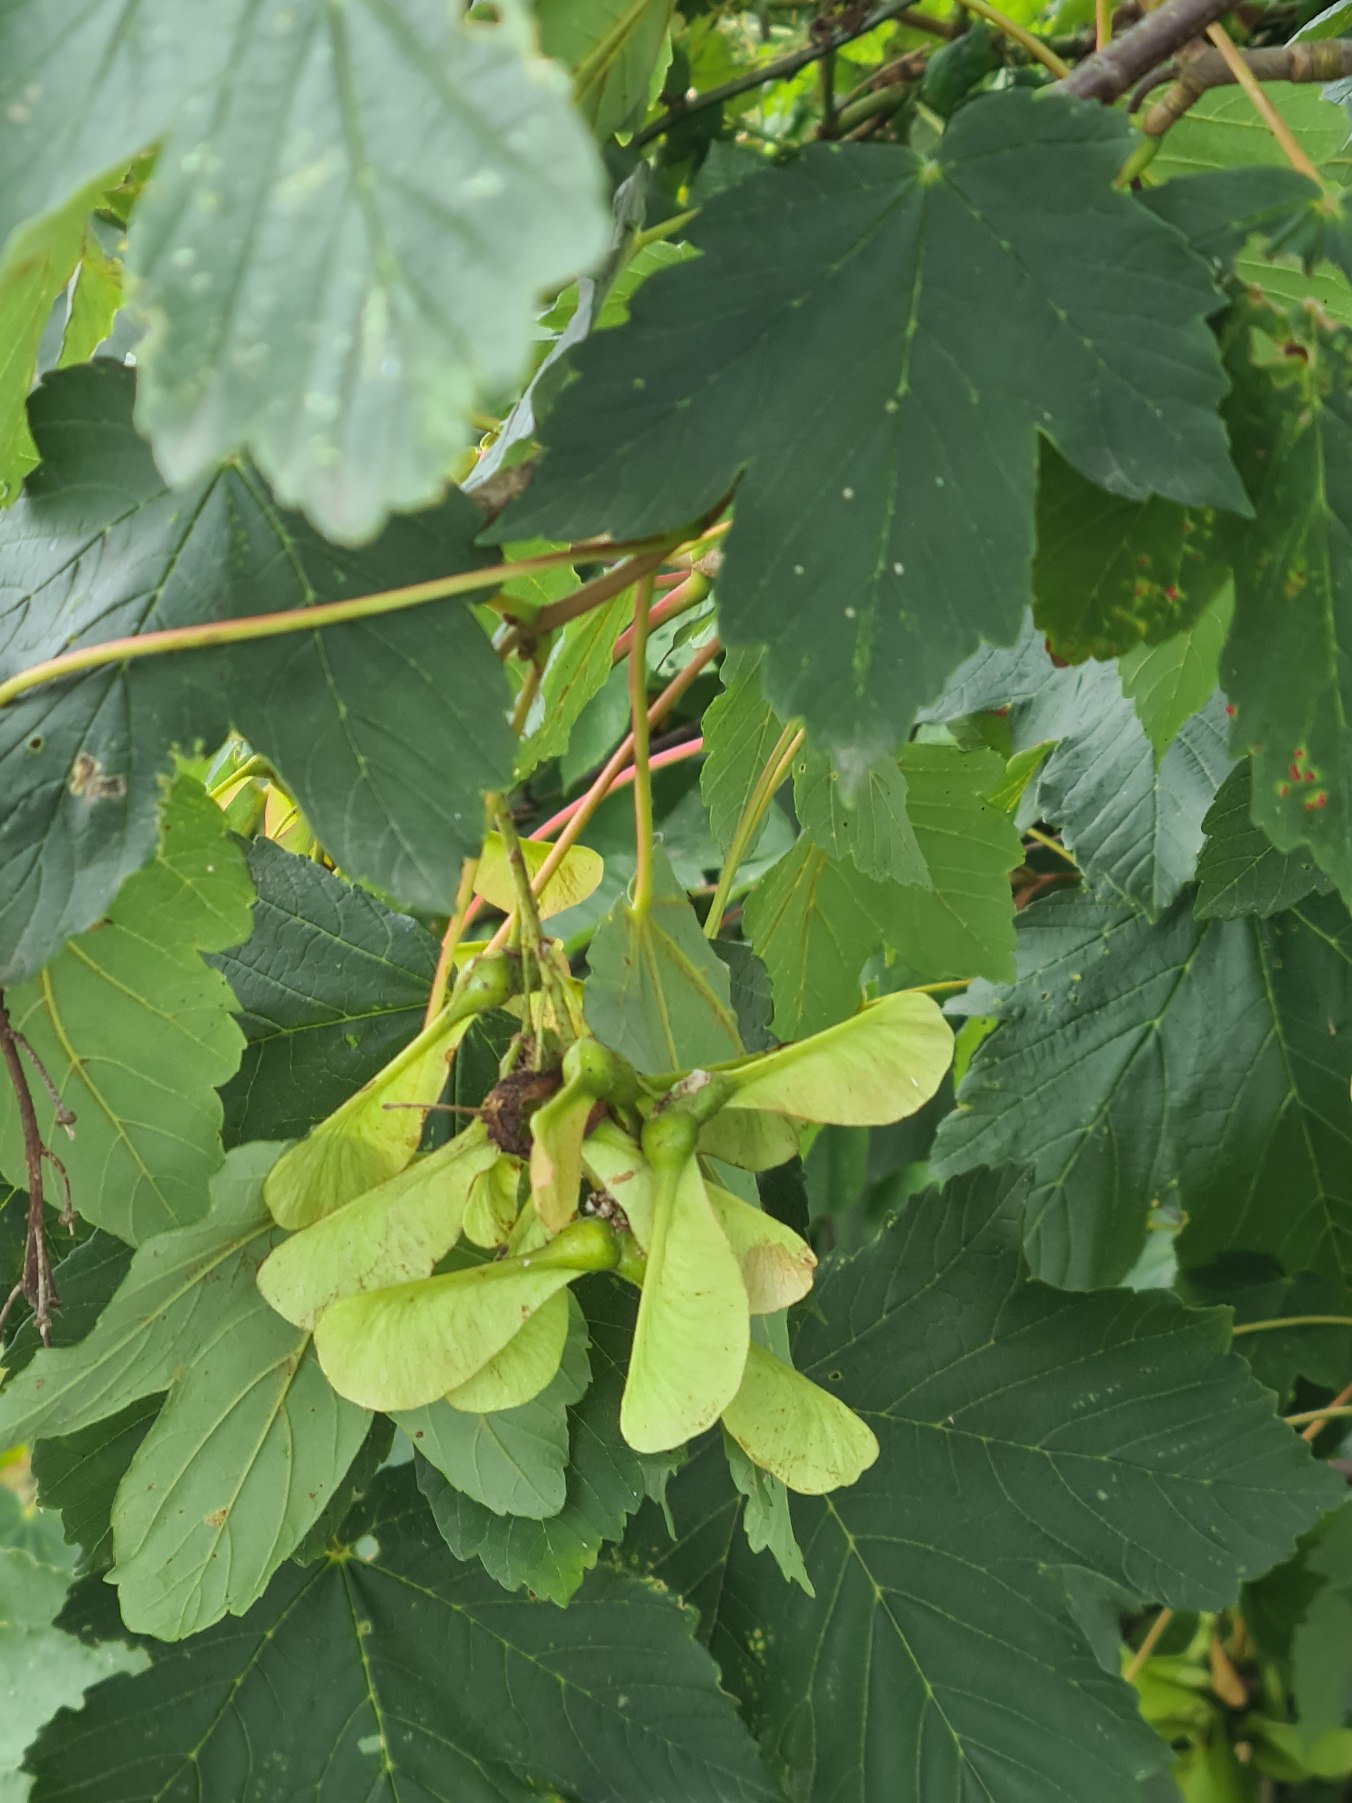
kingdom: Plantae
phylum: Tracheophyta
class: Magnoliopsida
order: Sapindales
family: Sapindaceae
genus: Acer
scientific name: Acer pseudoplatanus
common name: Ahorn
